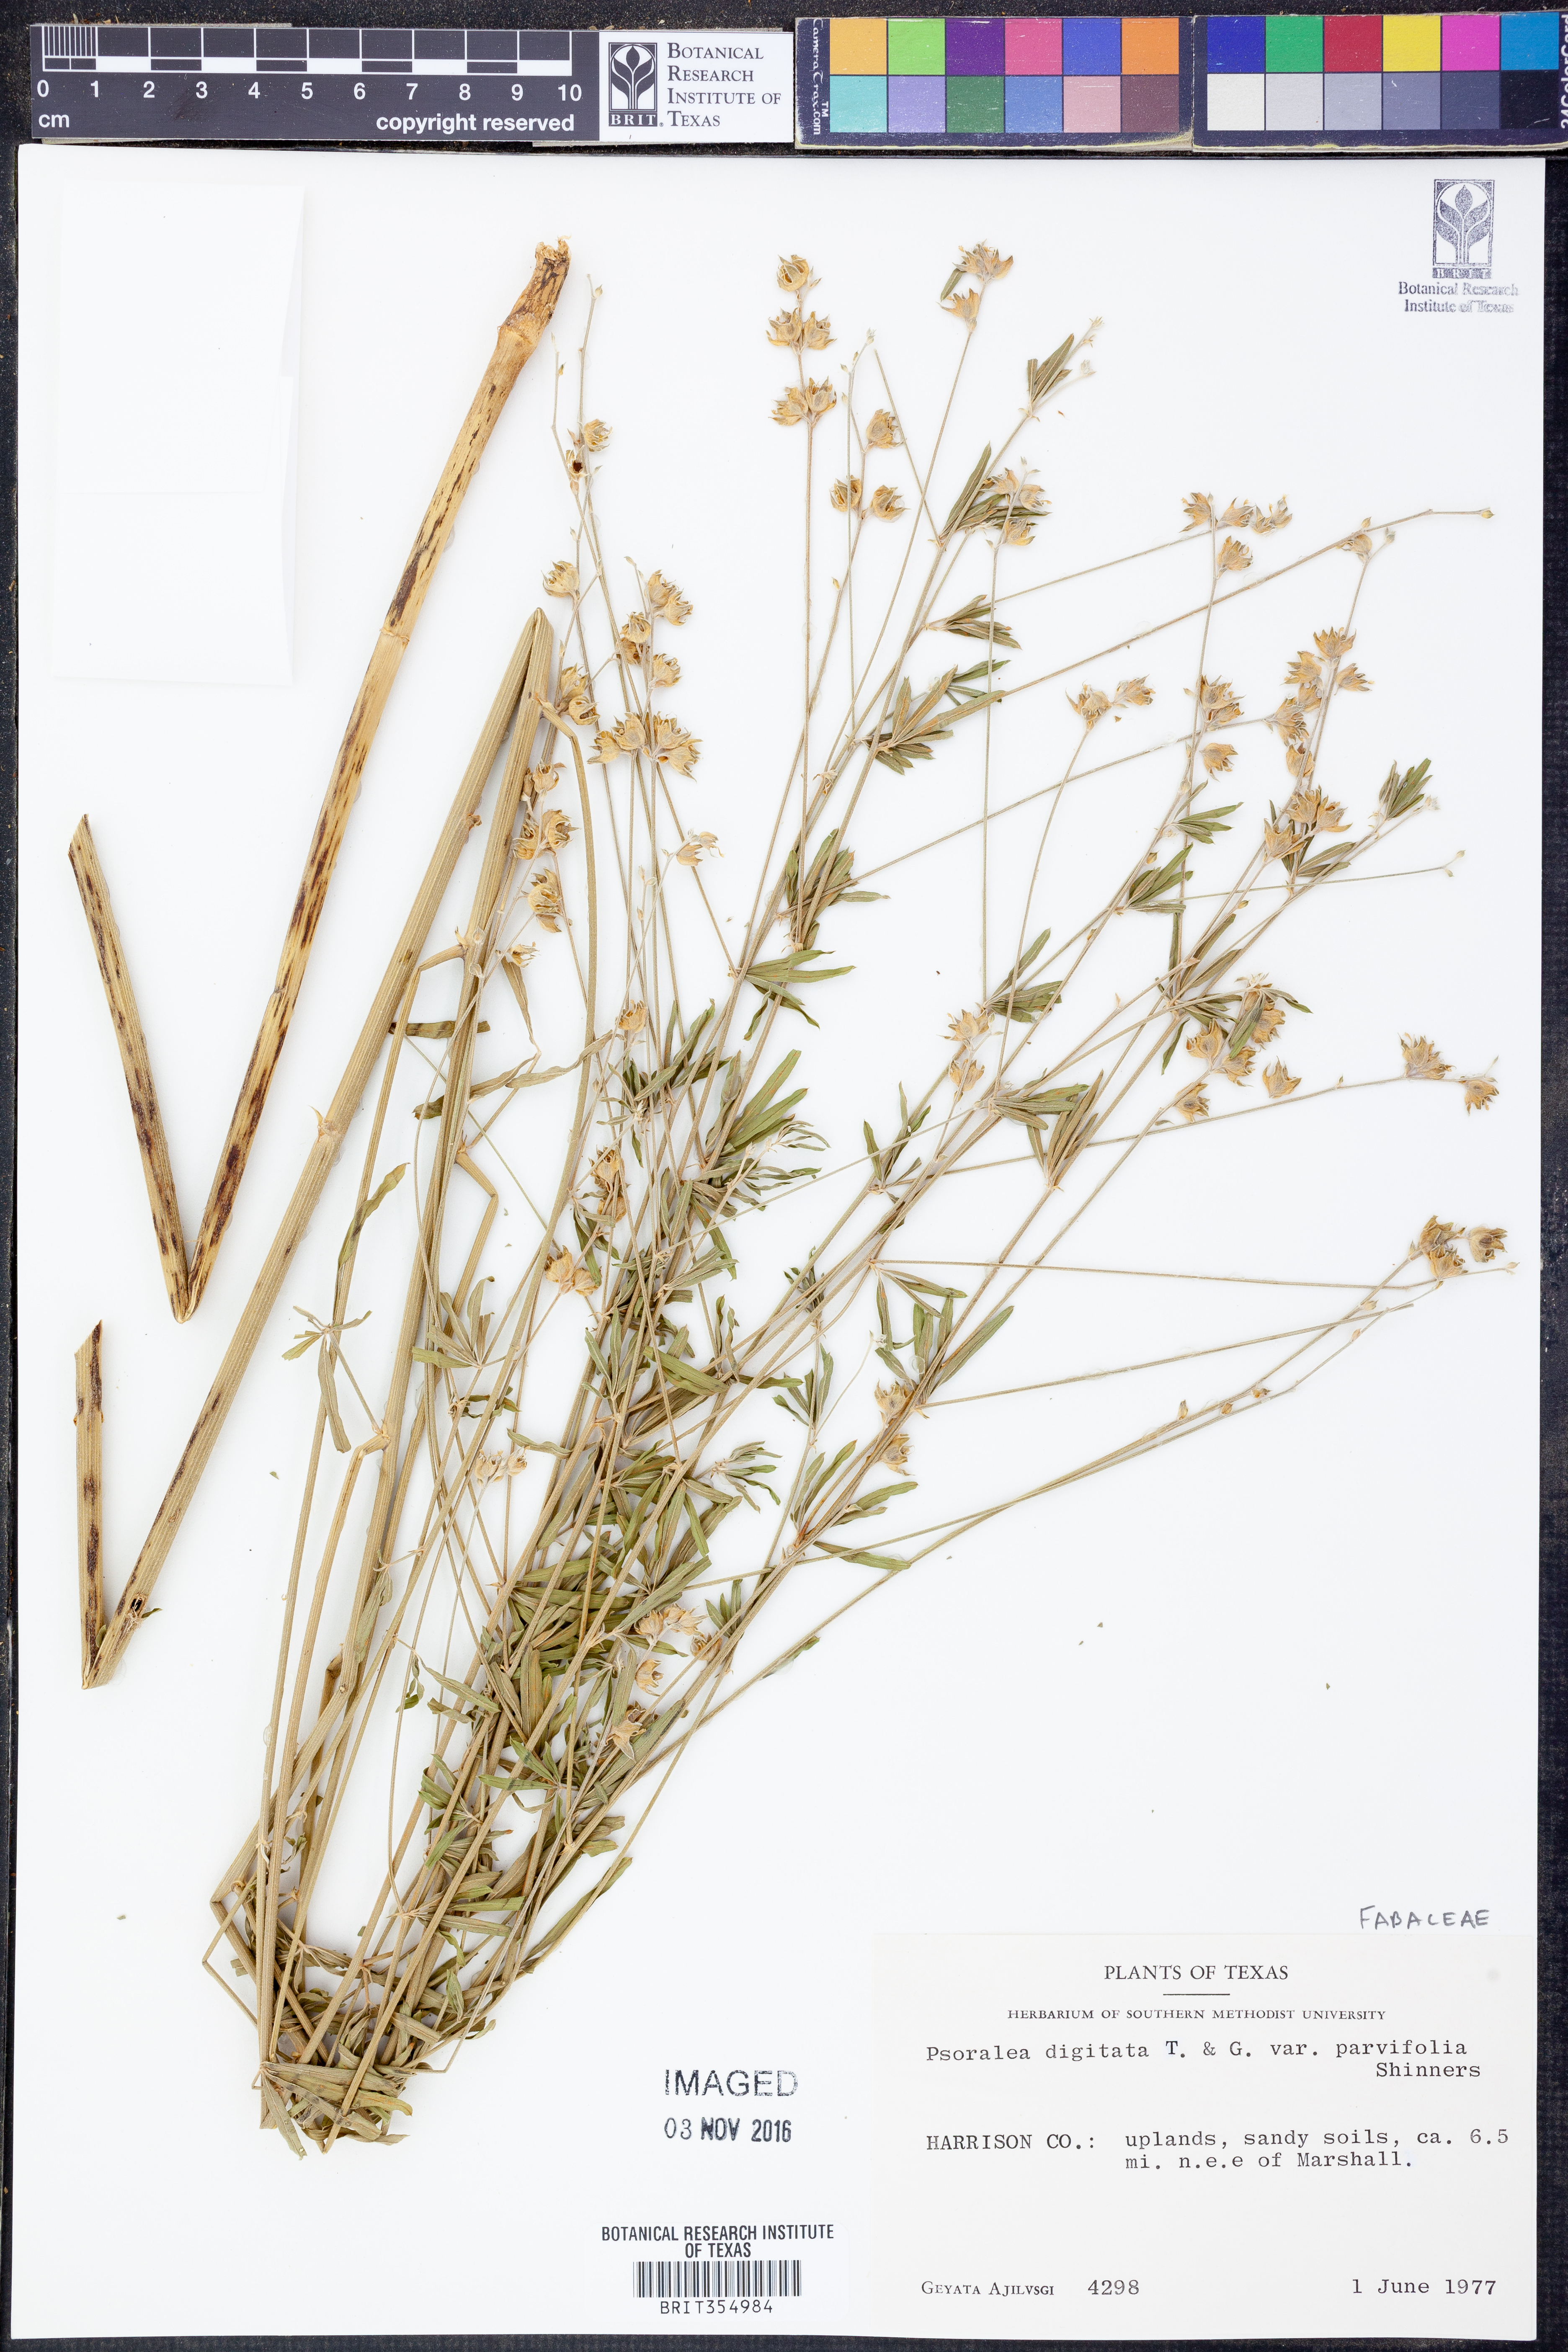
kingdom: Plantae
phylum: Tracheophyta
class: Magnoliopsida
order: Fabales
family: Fabaceae
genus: Pediomelum
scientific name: Pediomelum digitatum
